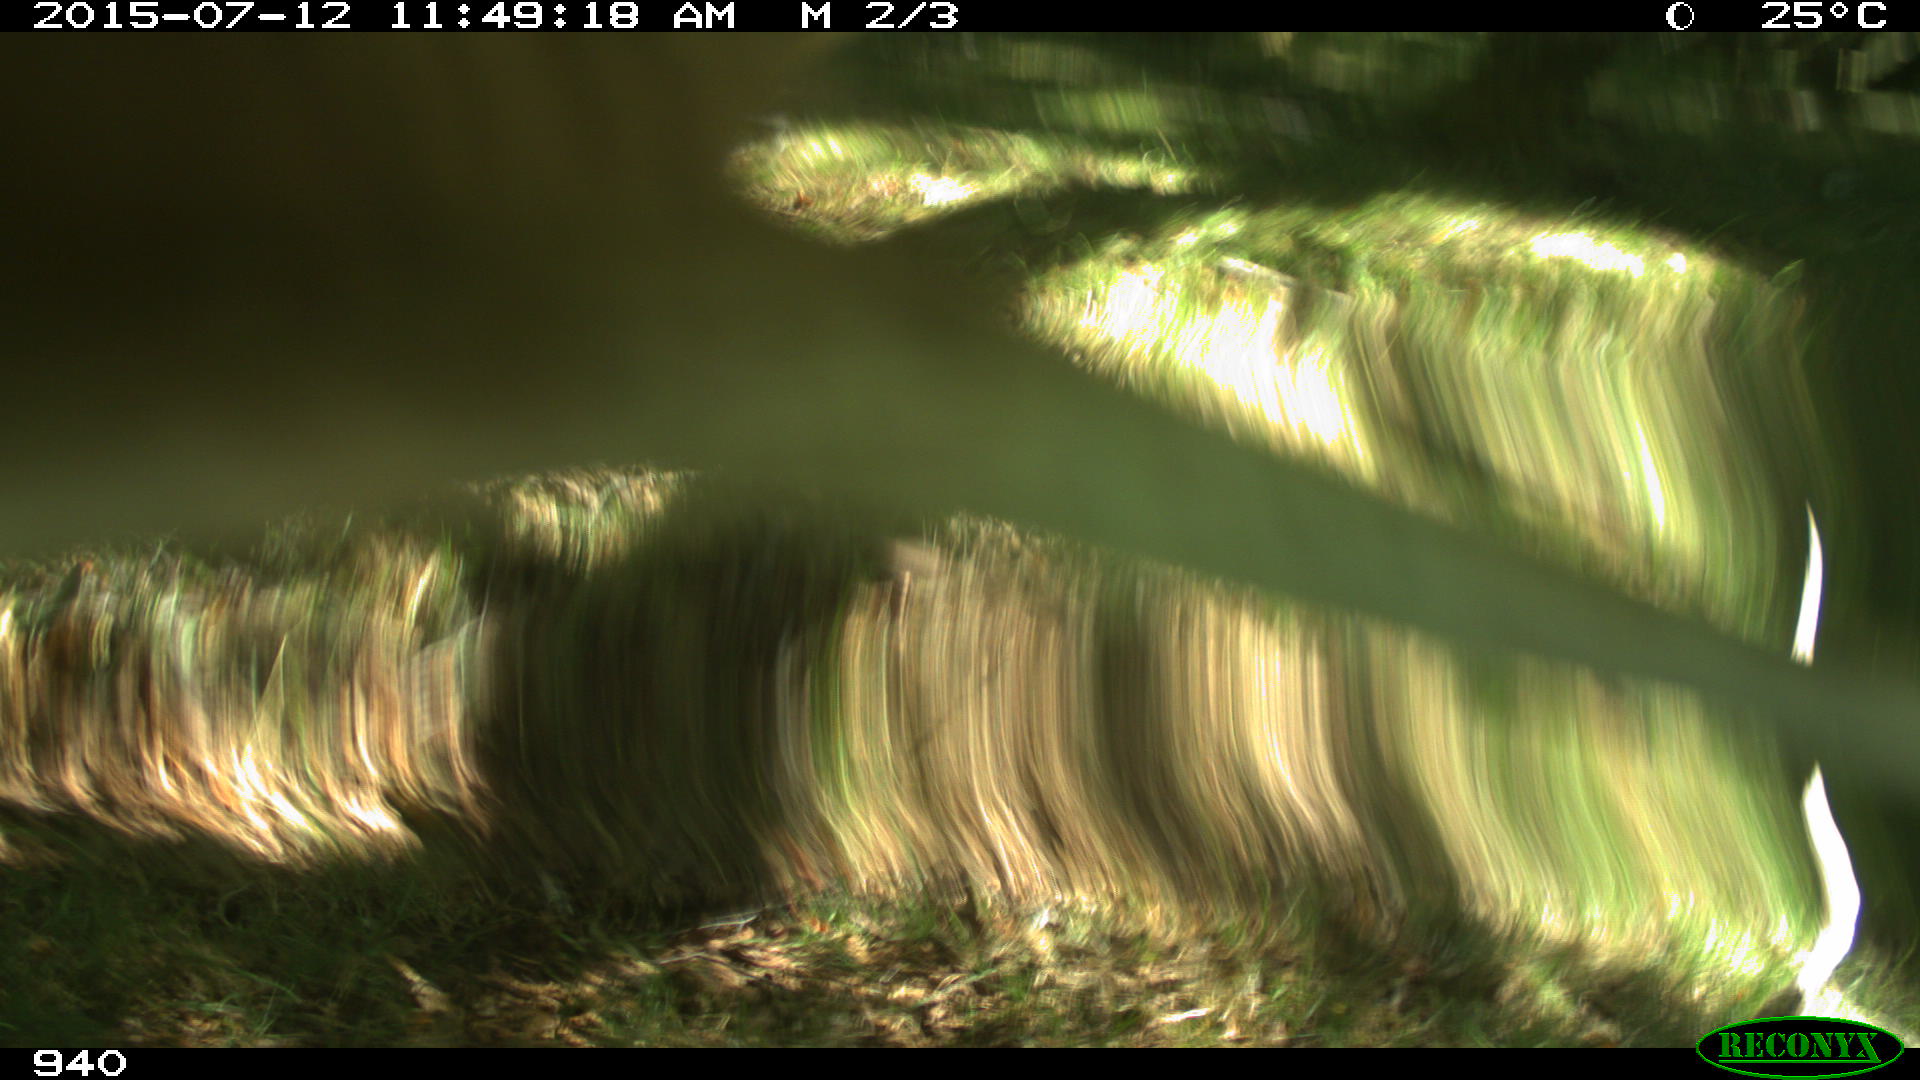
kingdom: Animalia
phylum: Chordata
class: Mammalia
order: Artiodactyla
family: Bovidae
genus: Bos
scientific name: Bos taurus
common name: Domesticated cattle
